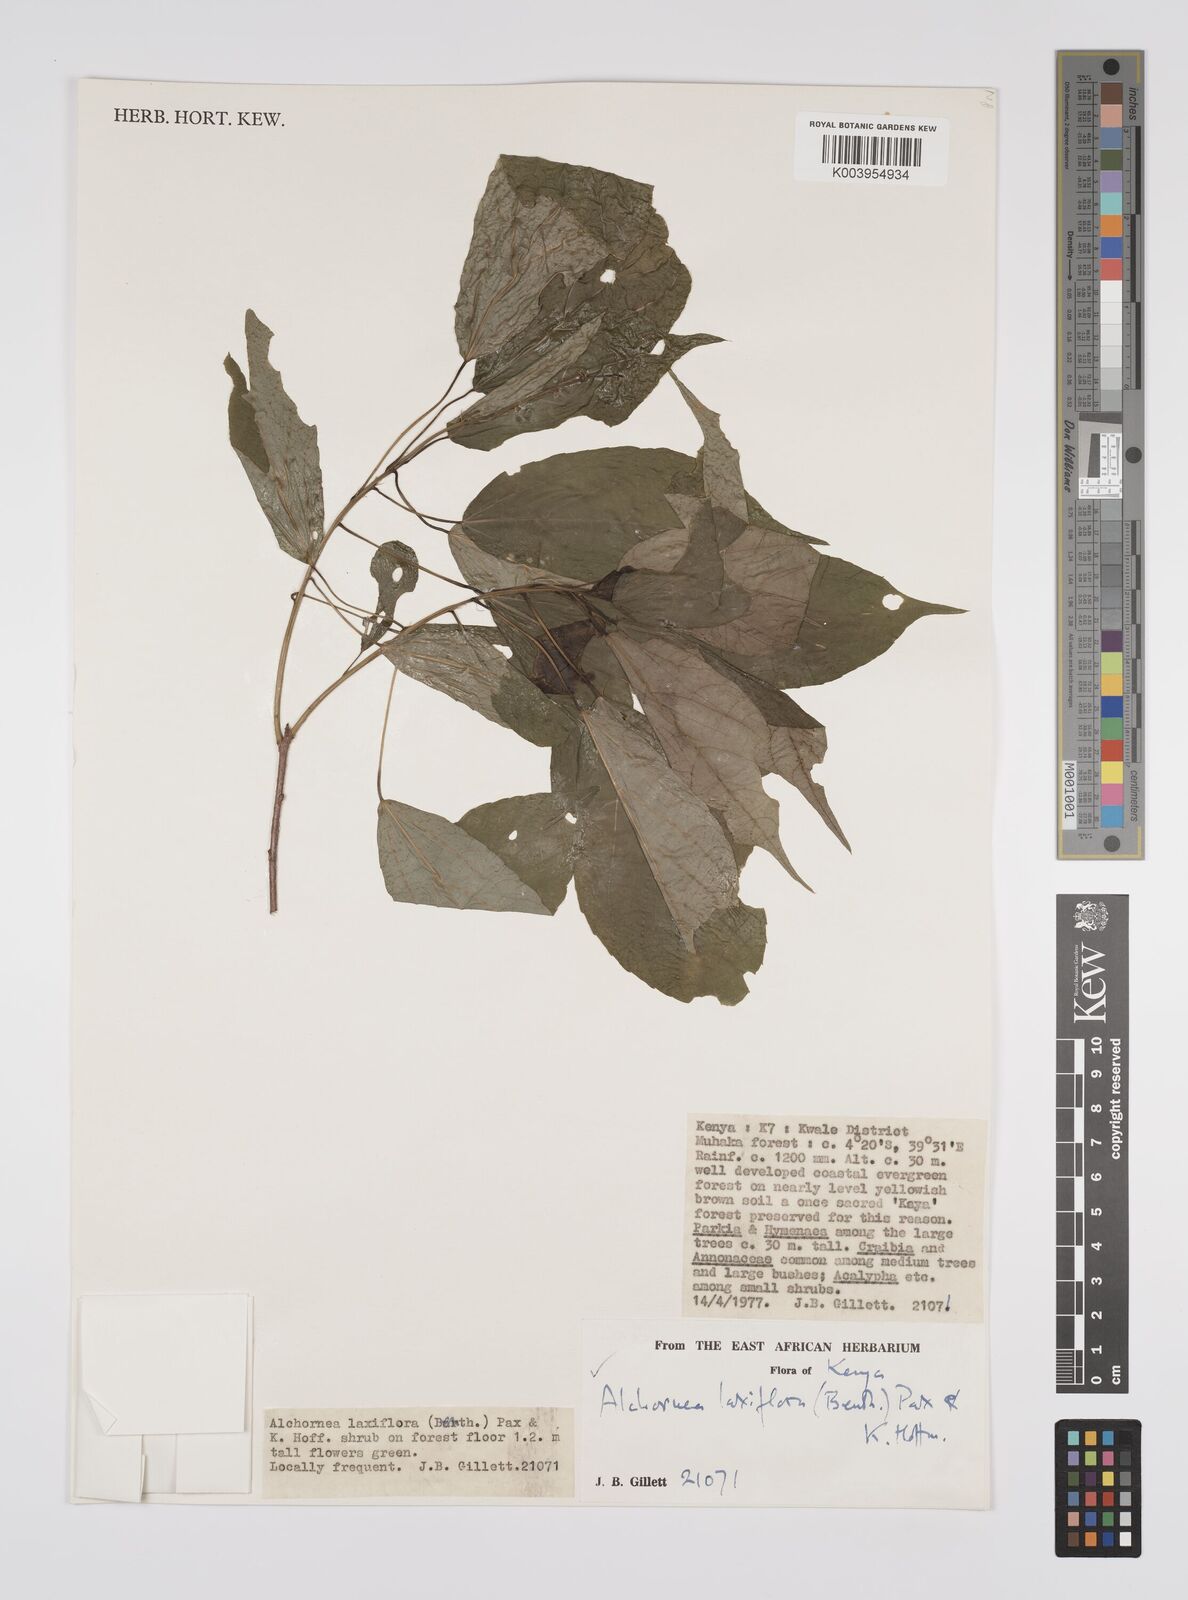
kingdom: Plantae
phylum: Tracheophyta
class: Magnoliopsida
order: Malpighiales
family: Euphorbiaceae
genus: Alchornea
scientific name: Alchornea laxiflora
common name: Lowveld bead-string
